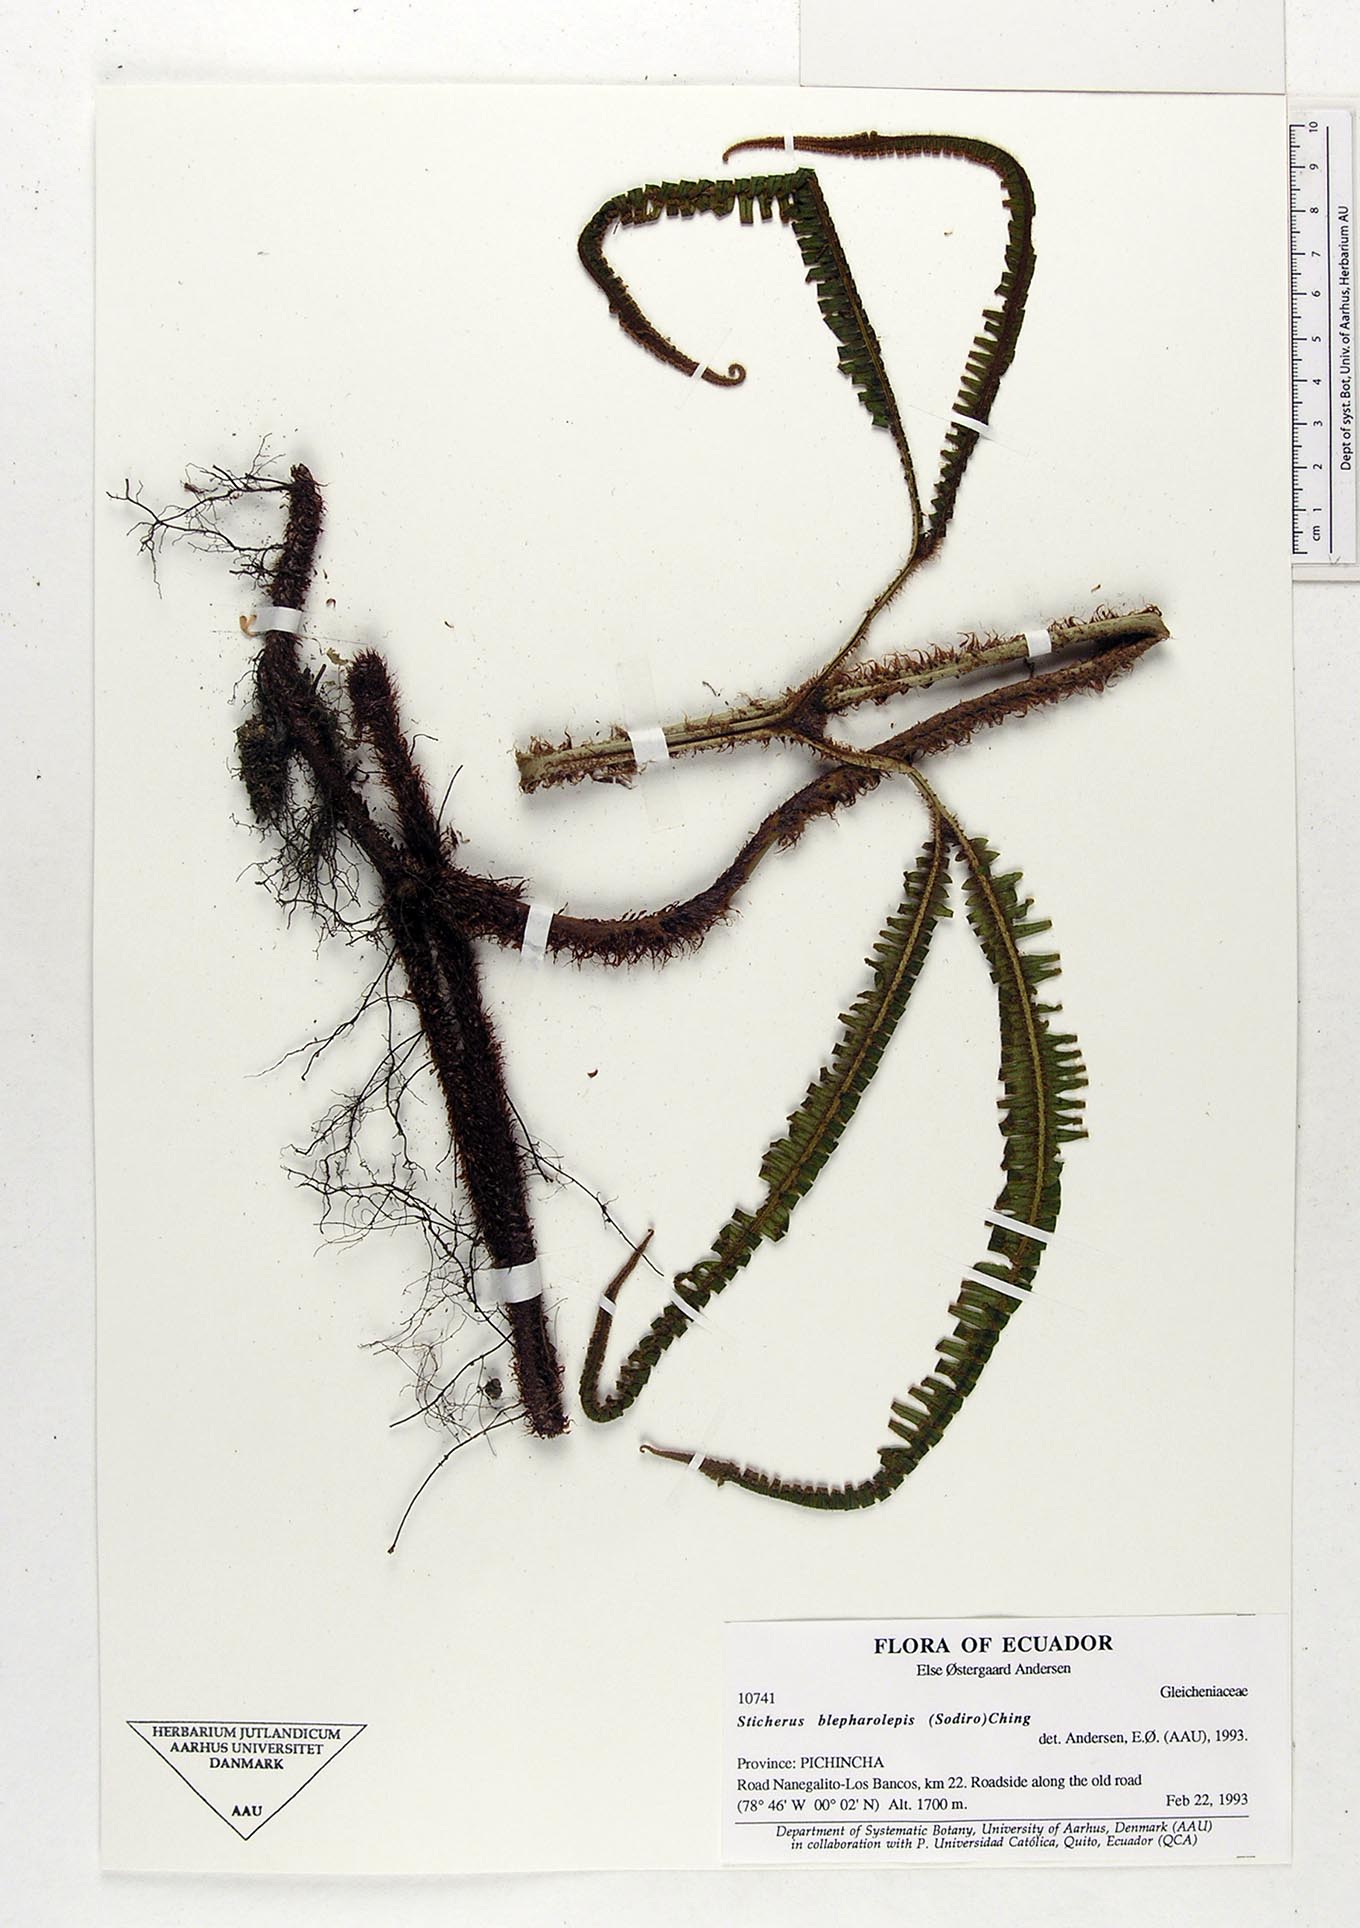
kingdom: Plantae
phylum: Tracheophyta
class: Polypodiopsida
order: Gleicheniales
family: Gleicheniaceae
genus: Sticherus
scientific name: Sticherus blepharolepis
